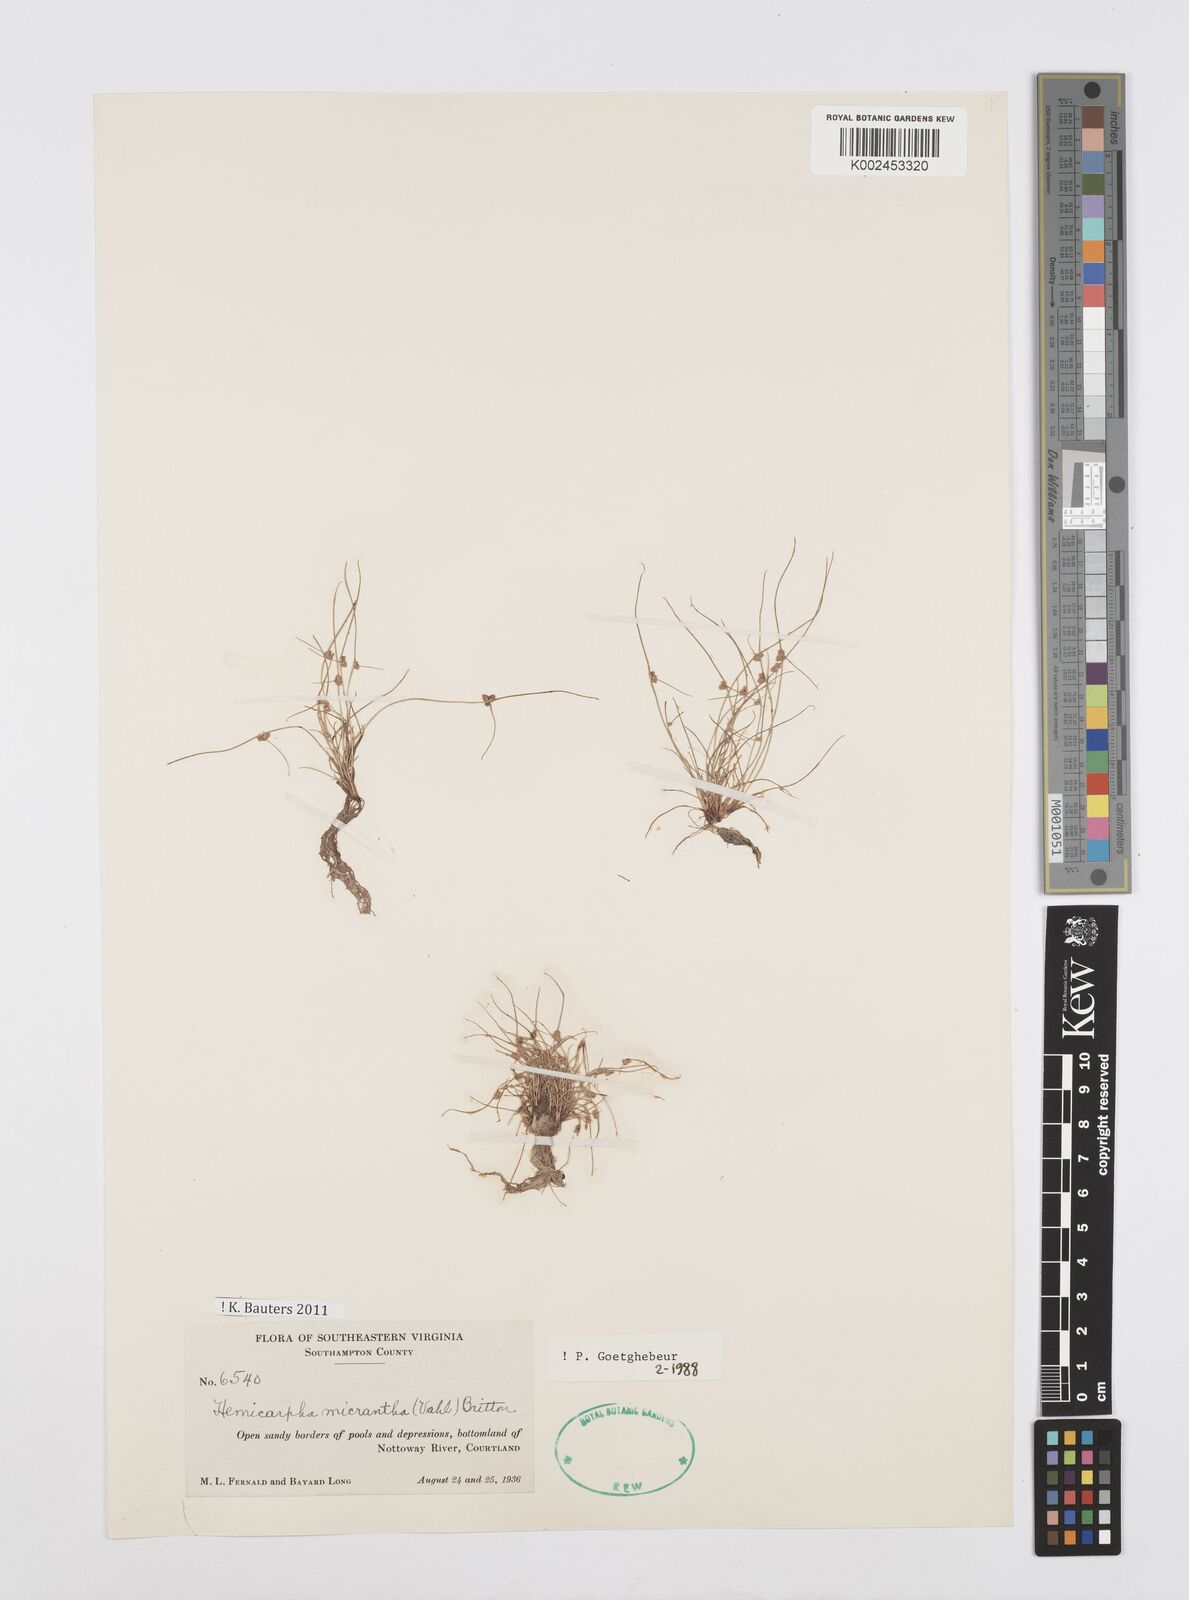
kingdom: Plantae
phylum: Tracheophyta
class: Liliopsida
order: Poales
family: Cyperaceae
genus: Cyperus
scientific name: Cyperus dentatus
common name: Dentate umbrella sedge
